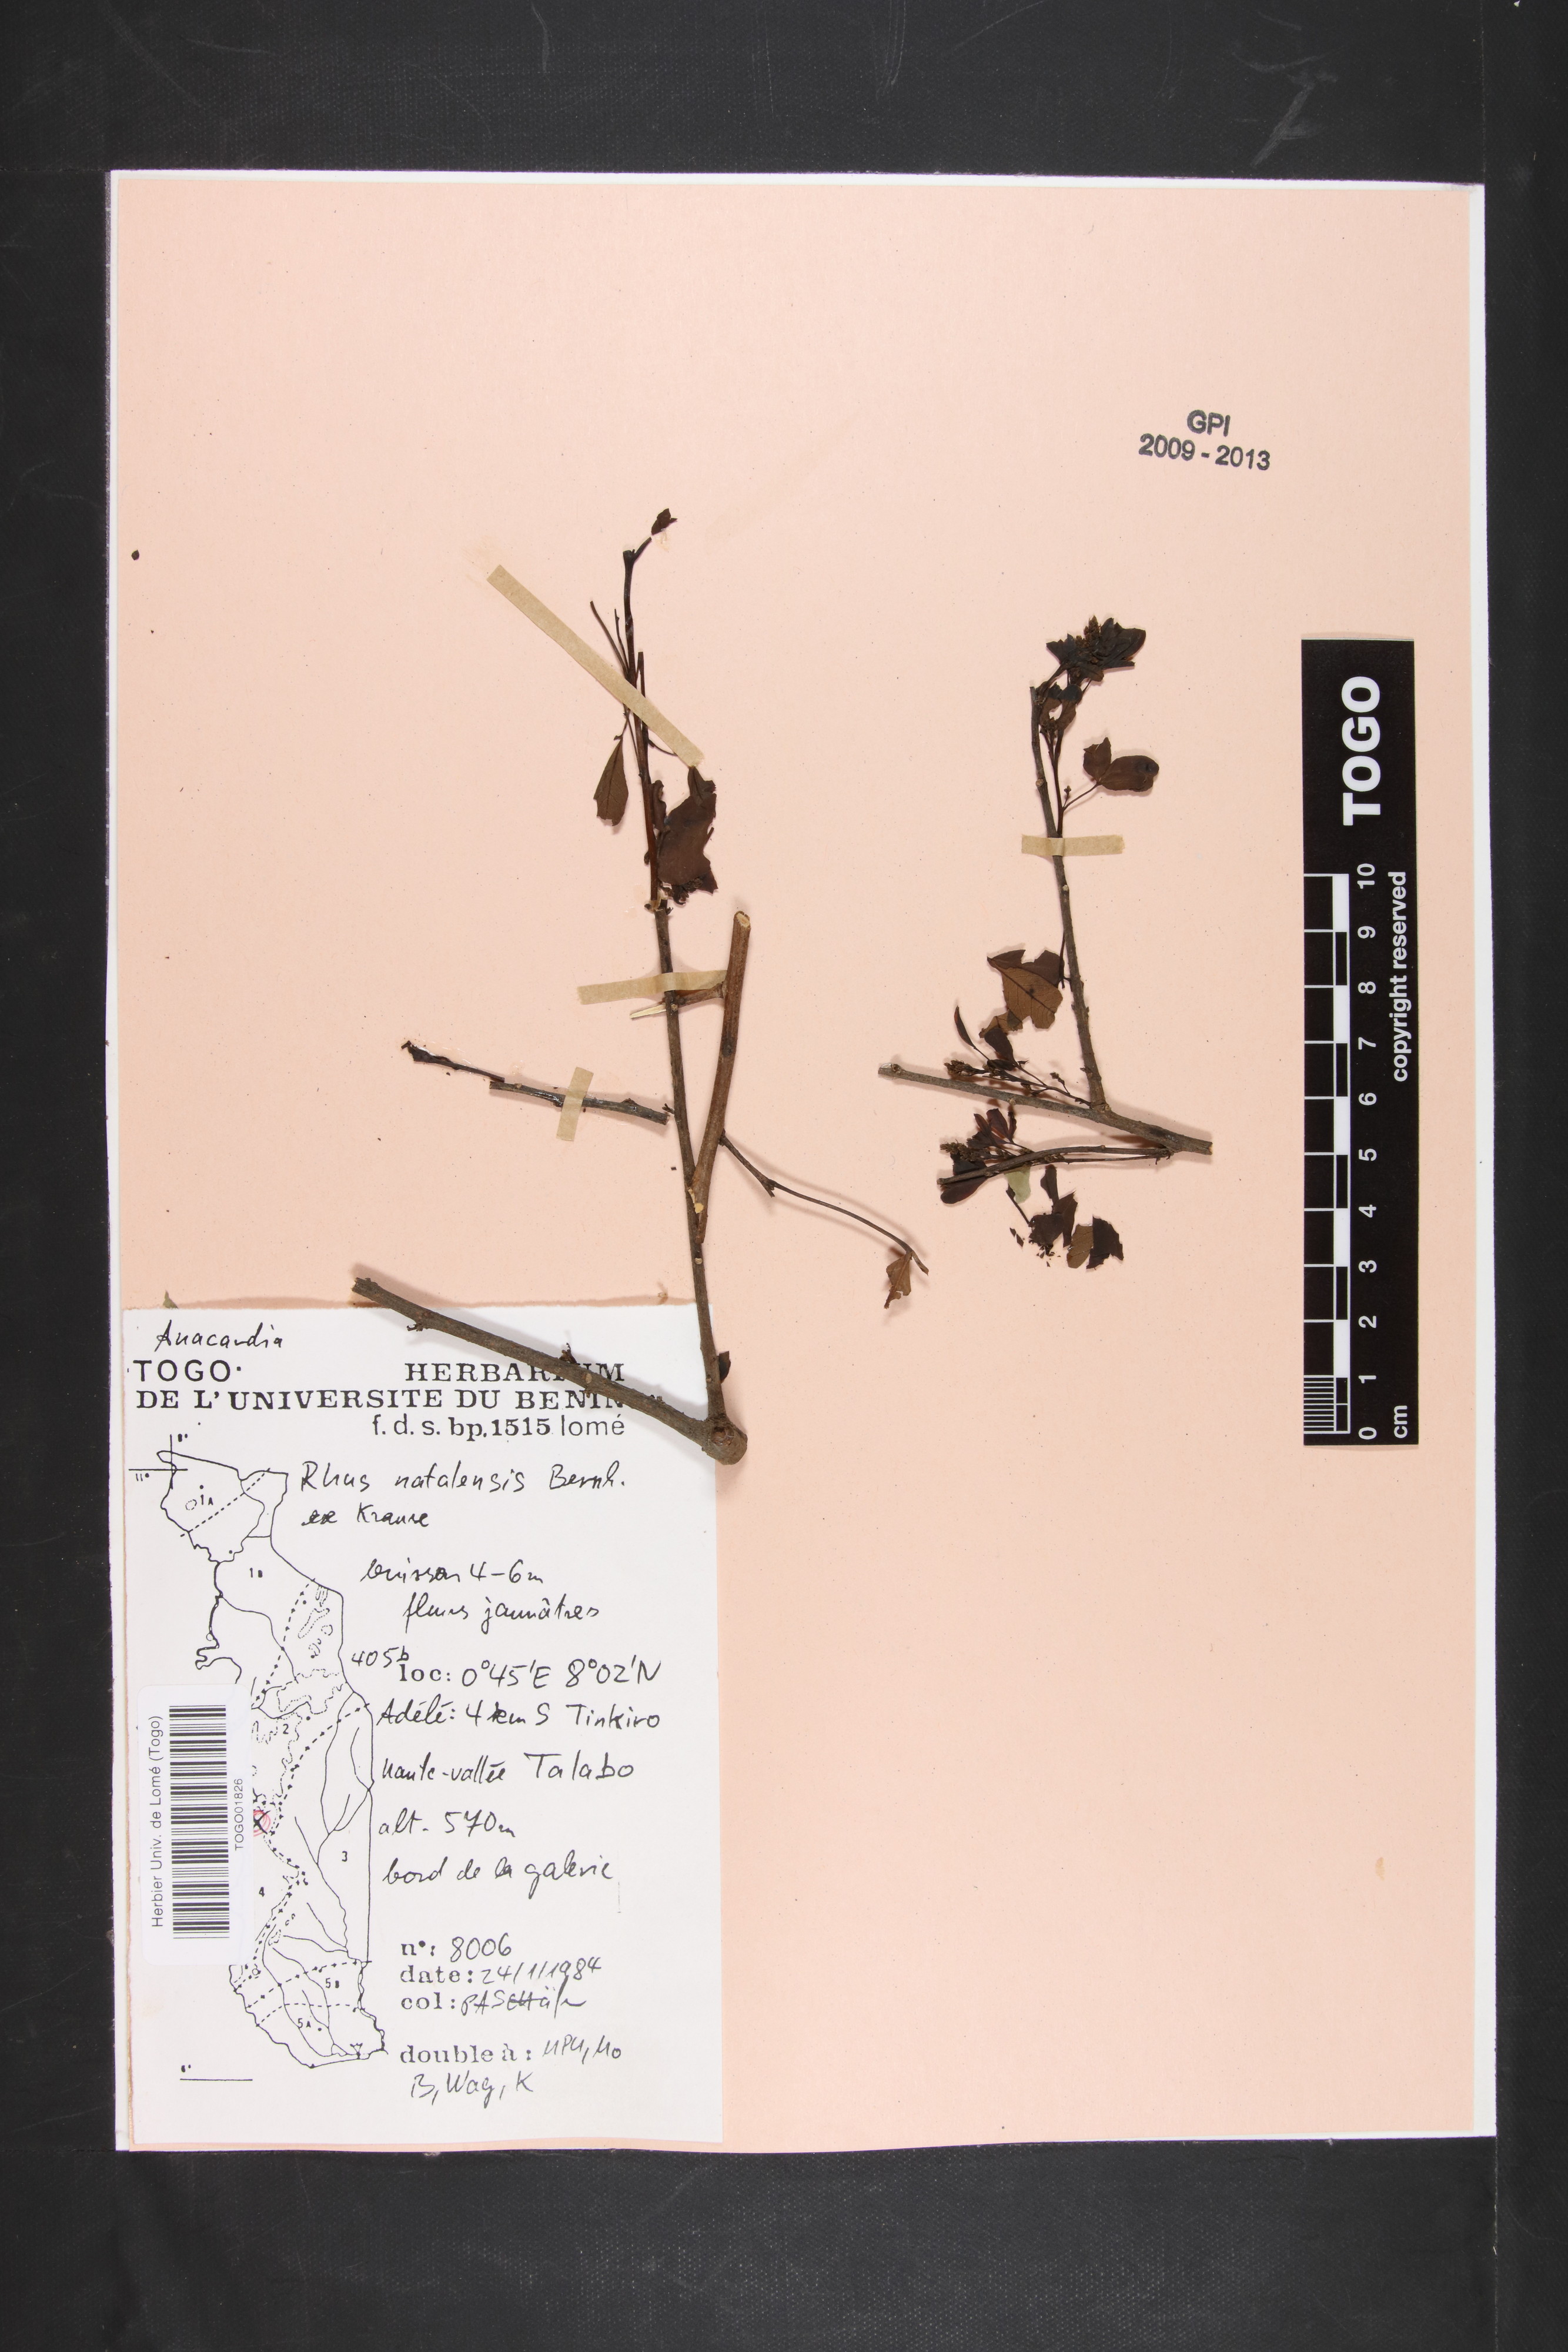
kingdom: Plantae
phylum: Tracheophyta
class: Magnoliopsida
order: Sapindales
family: Anacardiaceae
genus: Searsia
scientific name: Searsia natalensis
